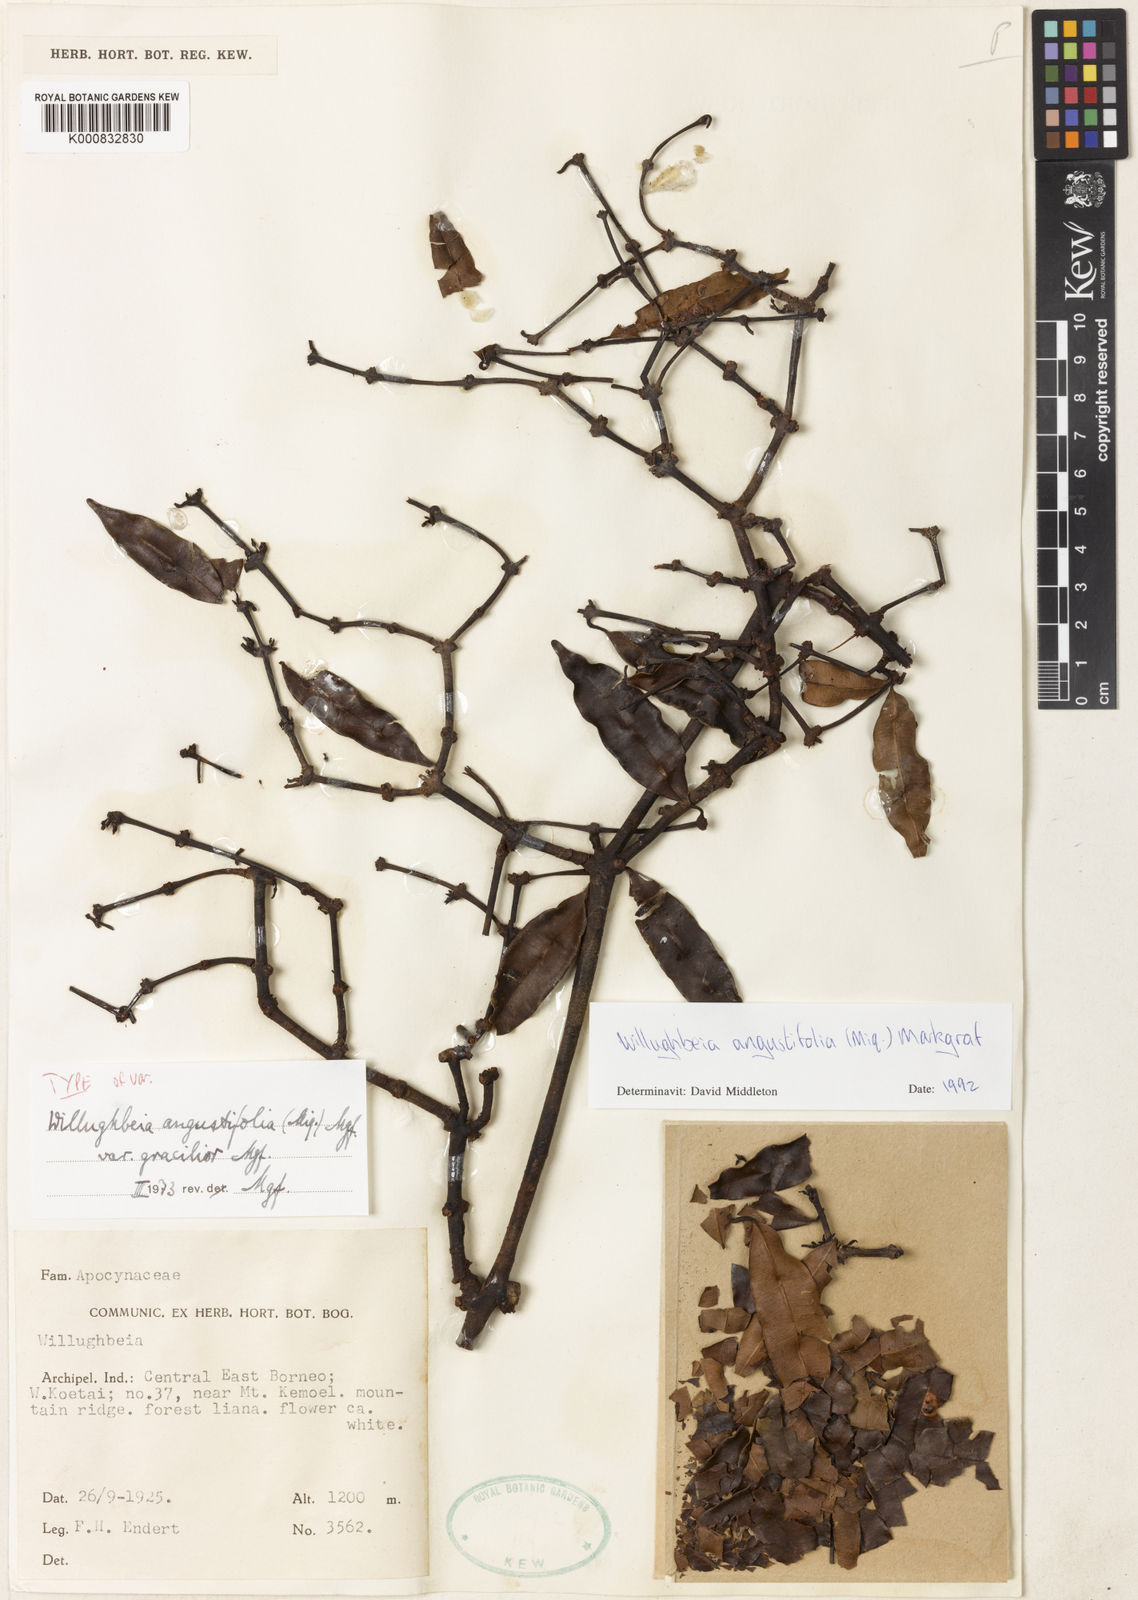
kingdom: Plantae
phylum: Tracheophyta
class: Magnoliopsida
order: Gentianales
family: Apocynaceae
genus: Willughbeia
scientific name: Willughbeia angustifolia
